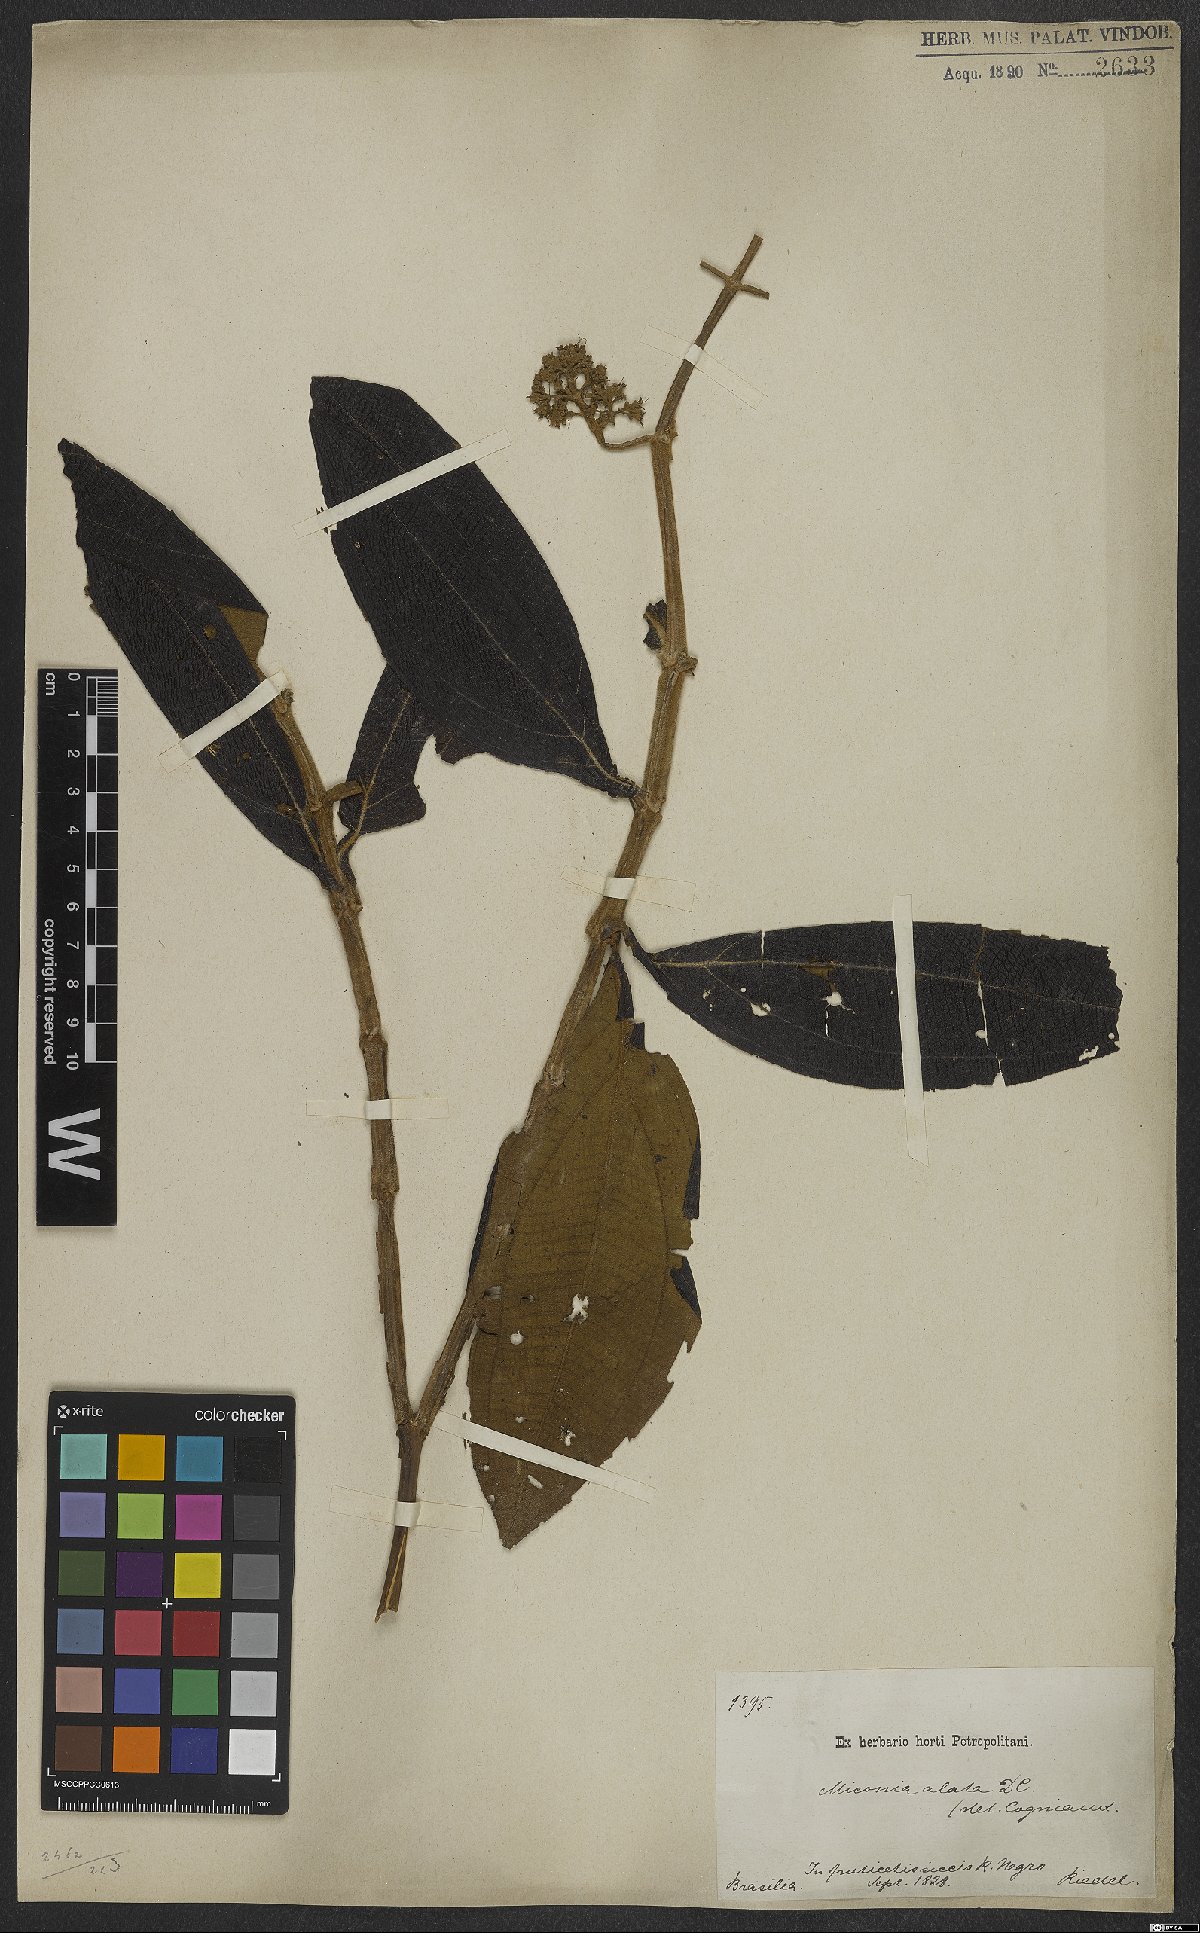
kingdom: Plantae
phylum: Tracheophyta
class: Magnoliopsida
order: Myrtales
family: Melastomataceae
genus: Miconia
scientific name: Miconia alata
